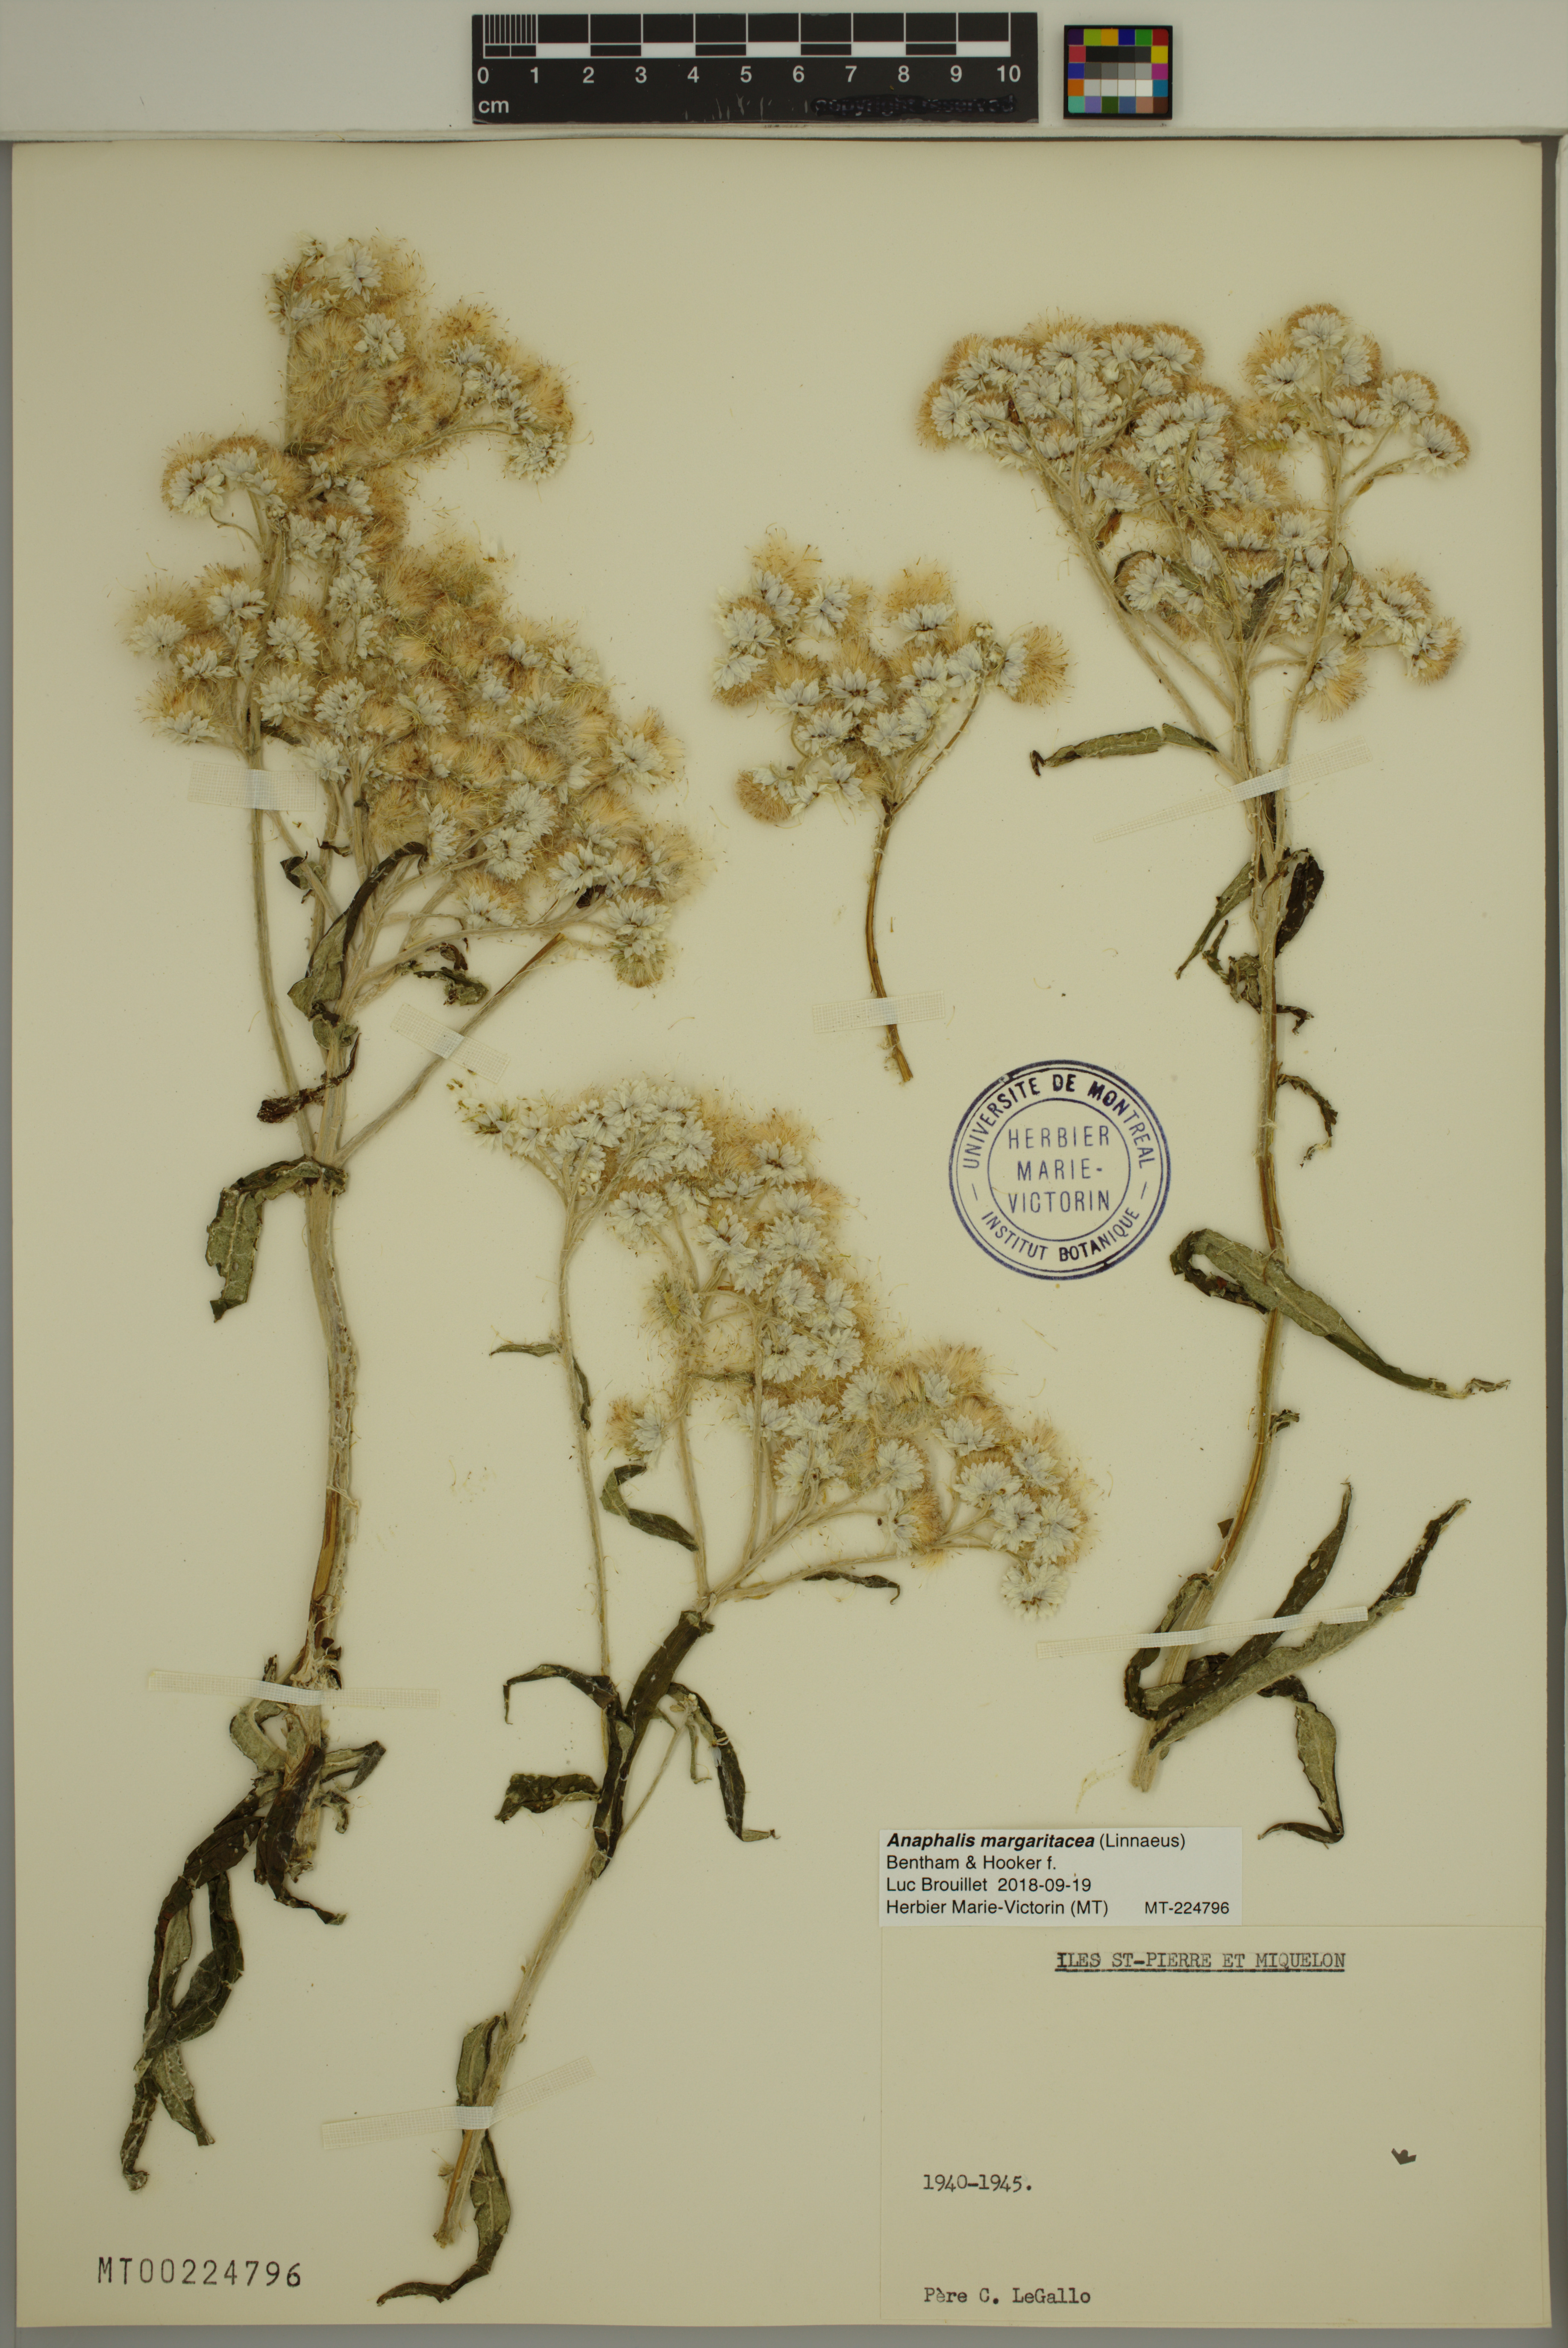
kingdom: Plantae
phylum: Tracheophyta
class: Magnoliopsida
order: Asterales
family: Asteraceae
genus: Anaphalis
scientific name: Anaphalis margaritacea
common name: Pearly everlasting
